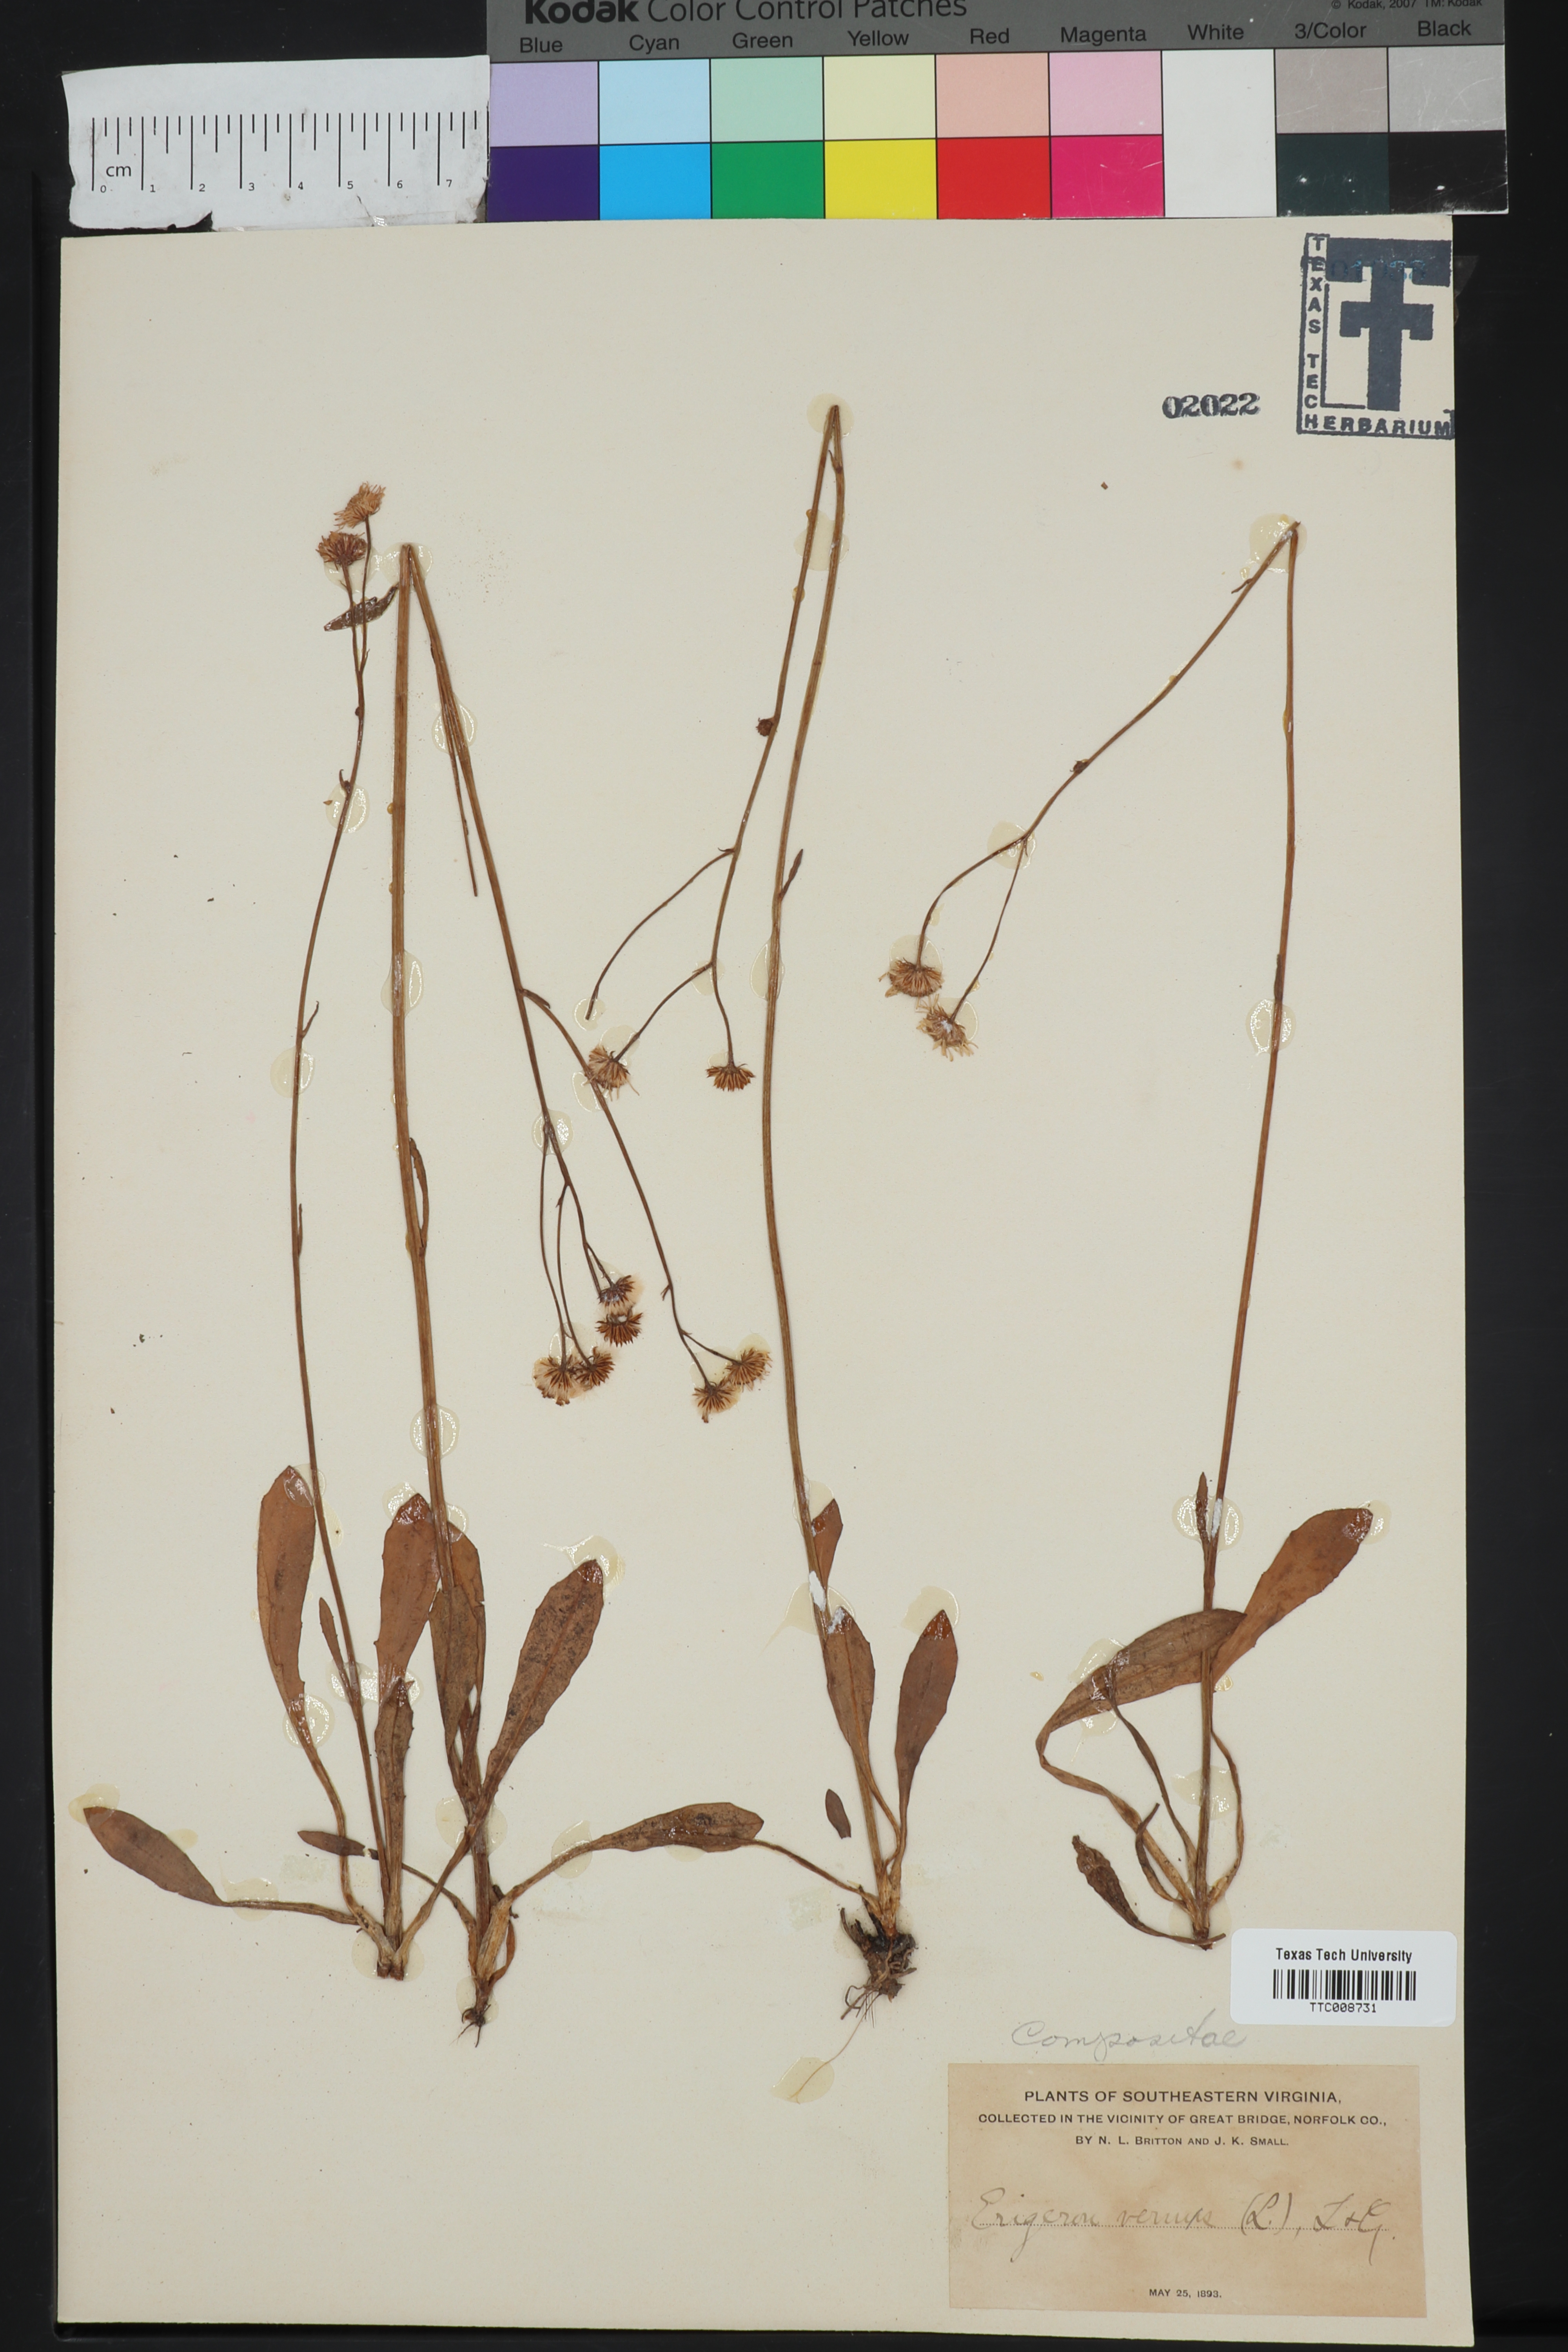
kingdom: Plantae
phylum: Tracheophyta
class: Magnoliopsida
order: Asterales
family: Asteraceae
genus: Erigeron
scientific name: Erigeron vernus
